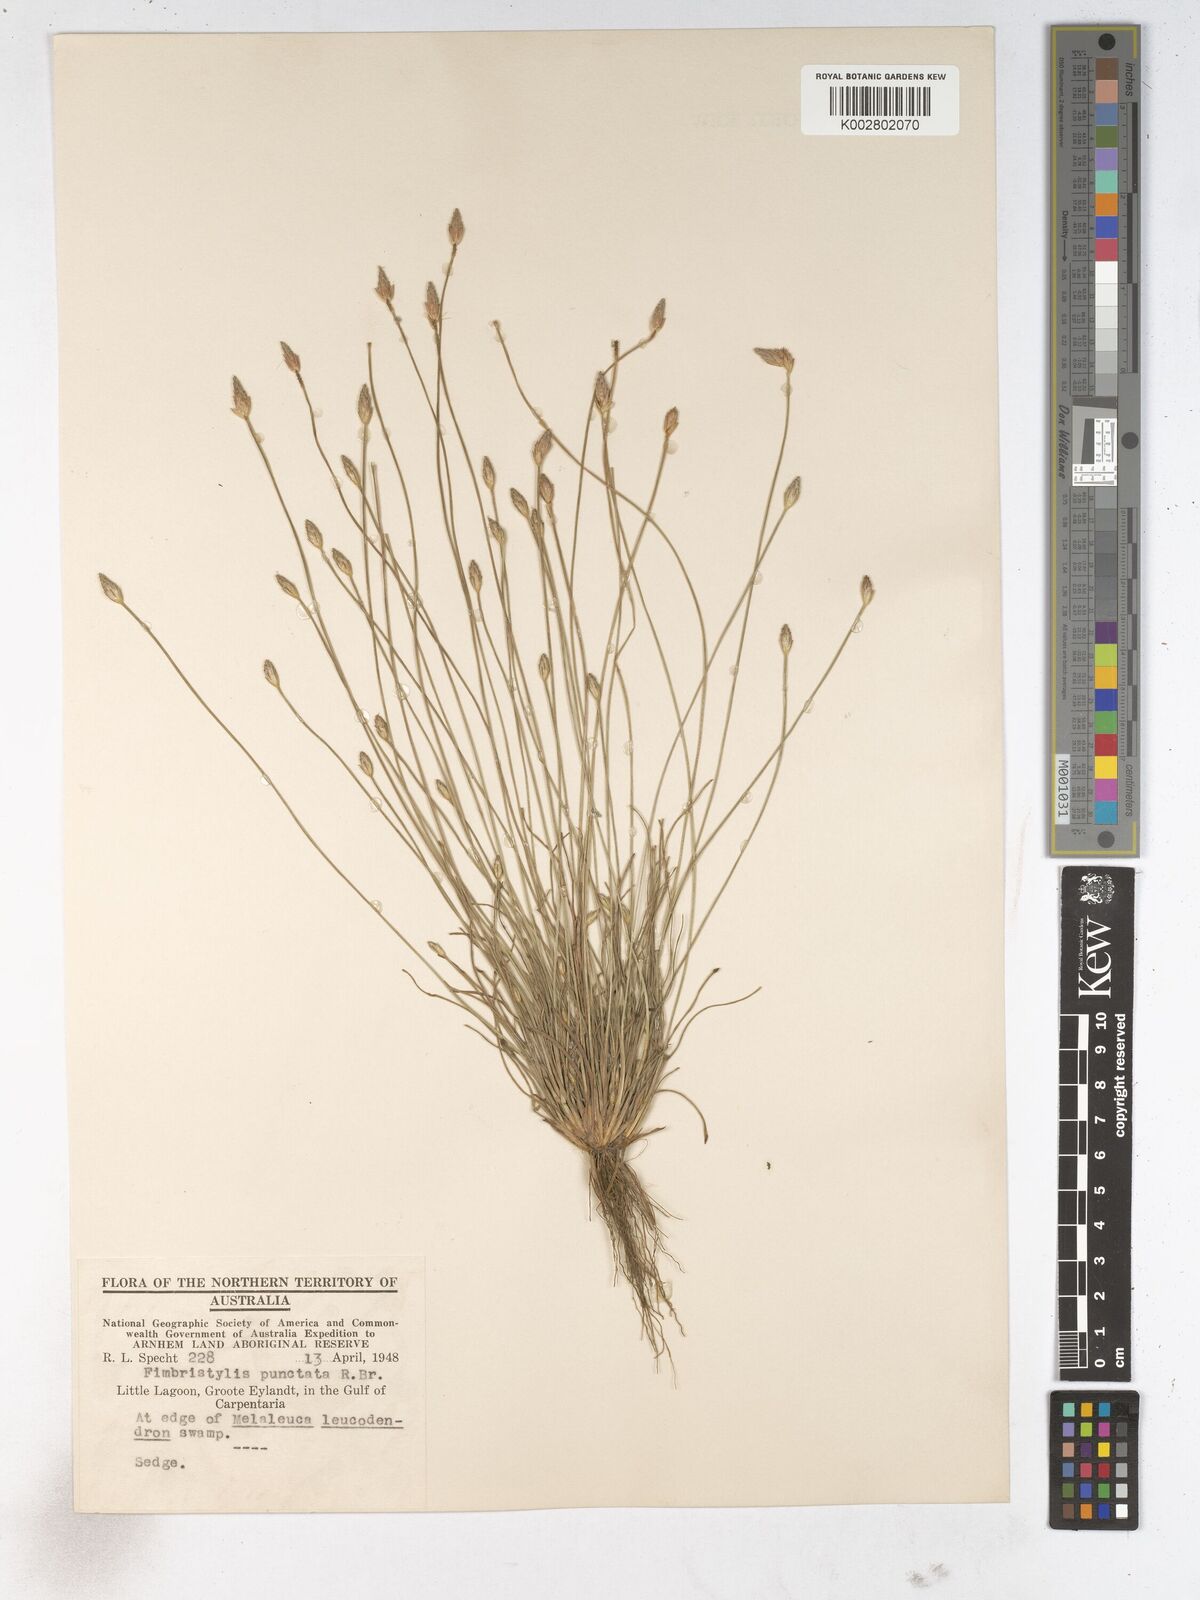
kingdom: Plantae
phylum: Tracheophyta
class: Liliopsida
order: Poales
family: Cyperaceae
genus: Fimbristylis
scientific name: Fimbristylis punctata
